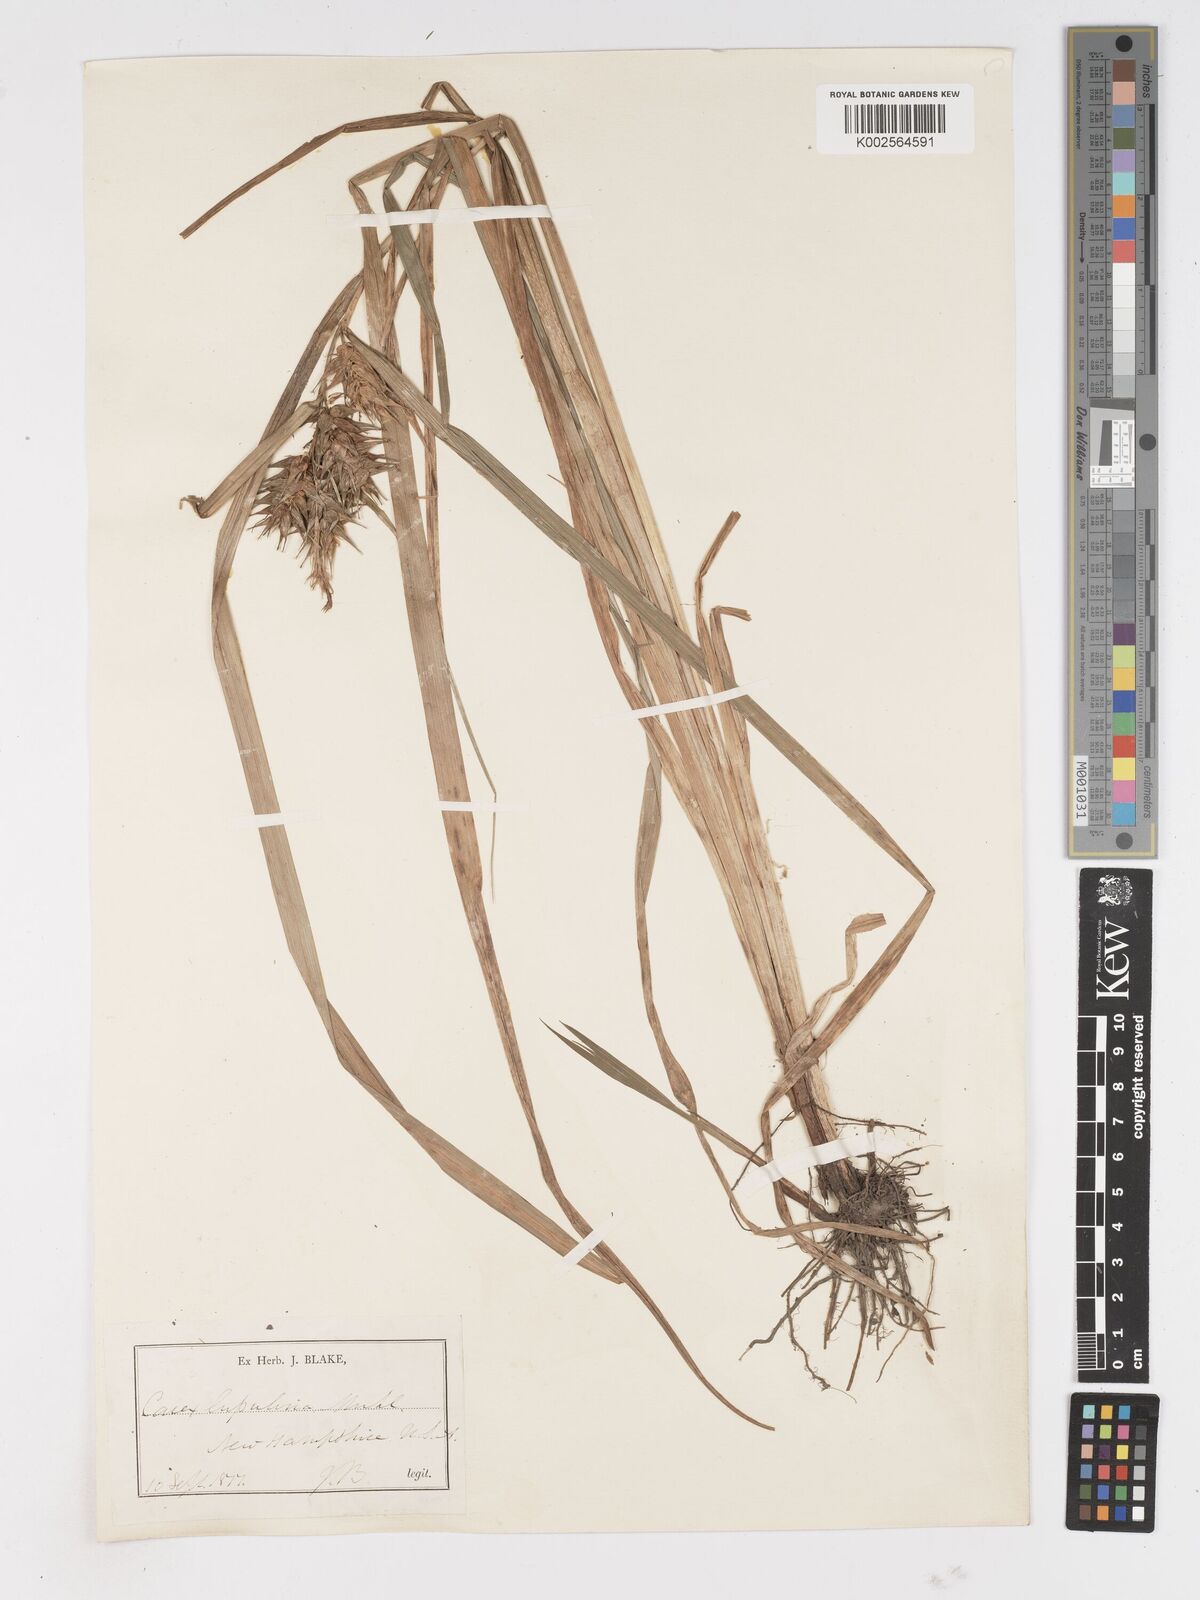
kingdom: Plantae
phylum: Tracheophyta
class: Liliopsida
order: Poales
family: Cyperaceae
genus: Carex
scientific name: Carex lupulina
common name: Hop sedge
